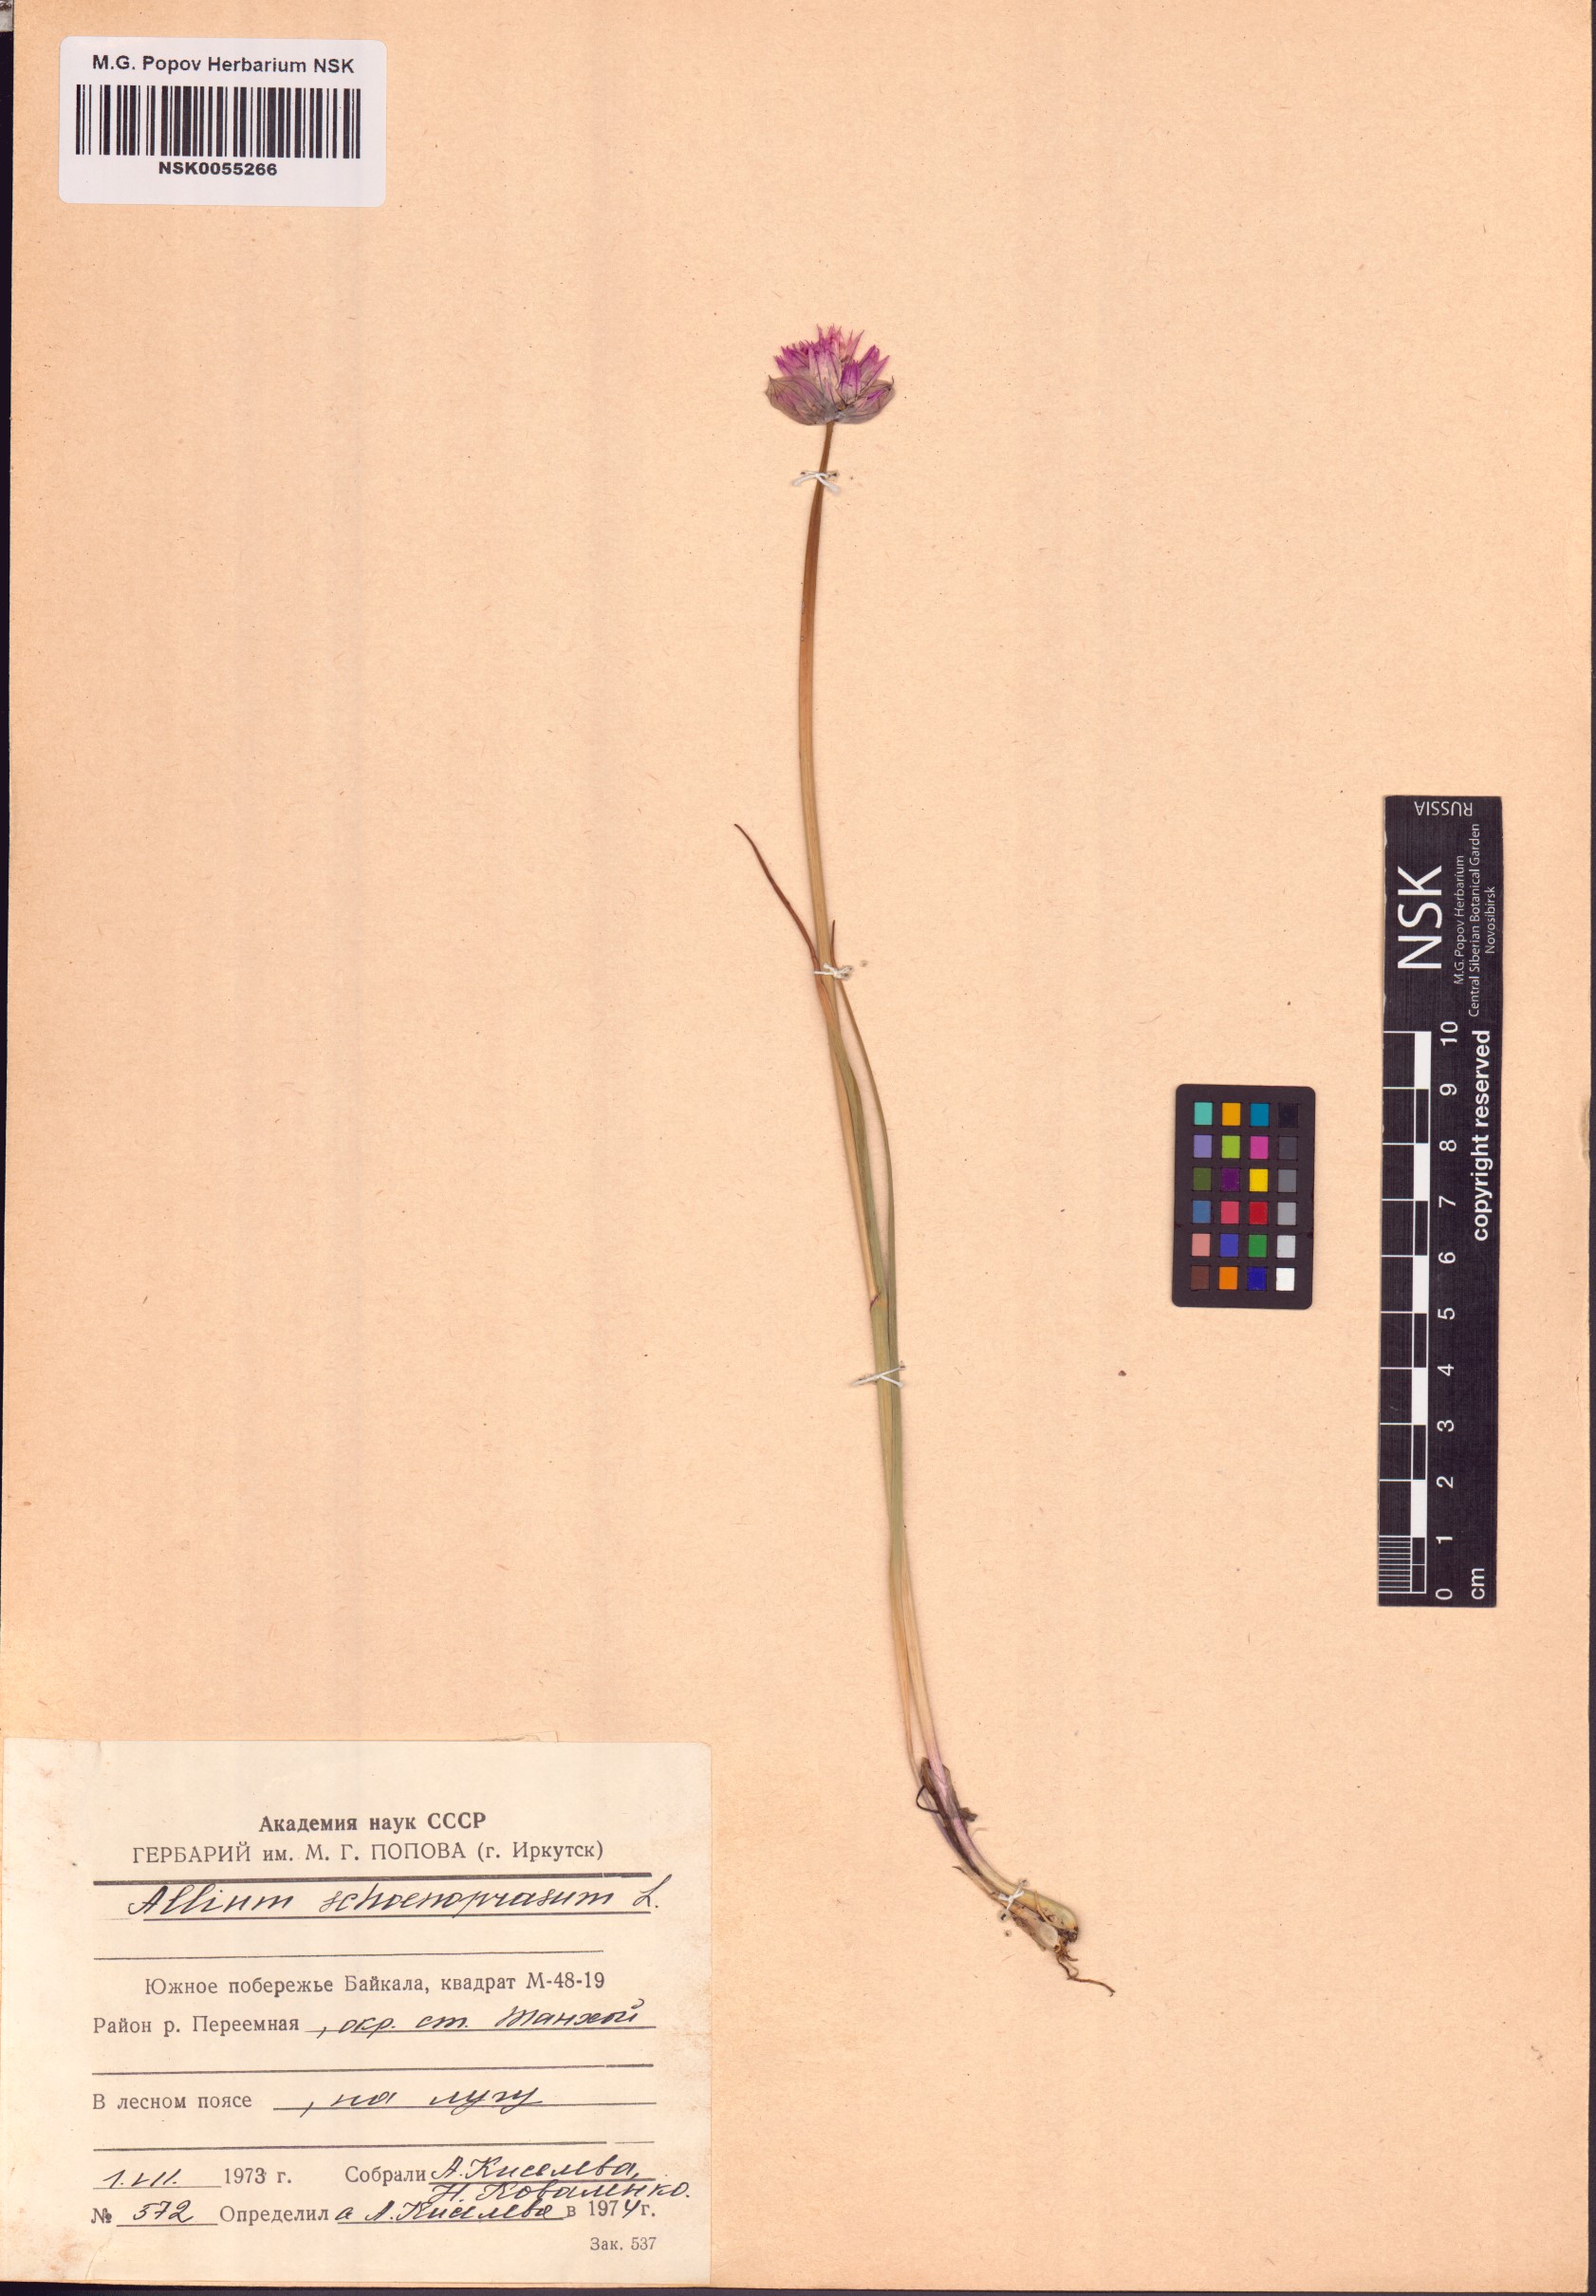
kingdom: Plantae
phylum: Tracheophyta
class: Liliopsida
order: Asparagales
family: Amaryllidaceae
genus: Allium
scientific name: Allium schoenoprasum
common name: Chives
